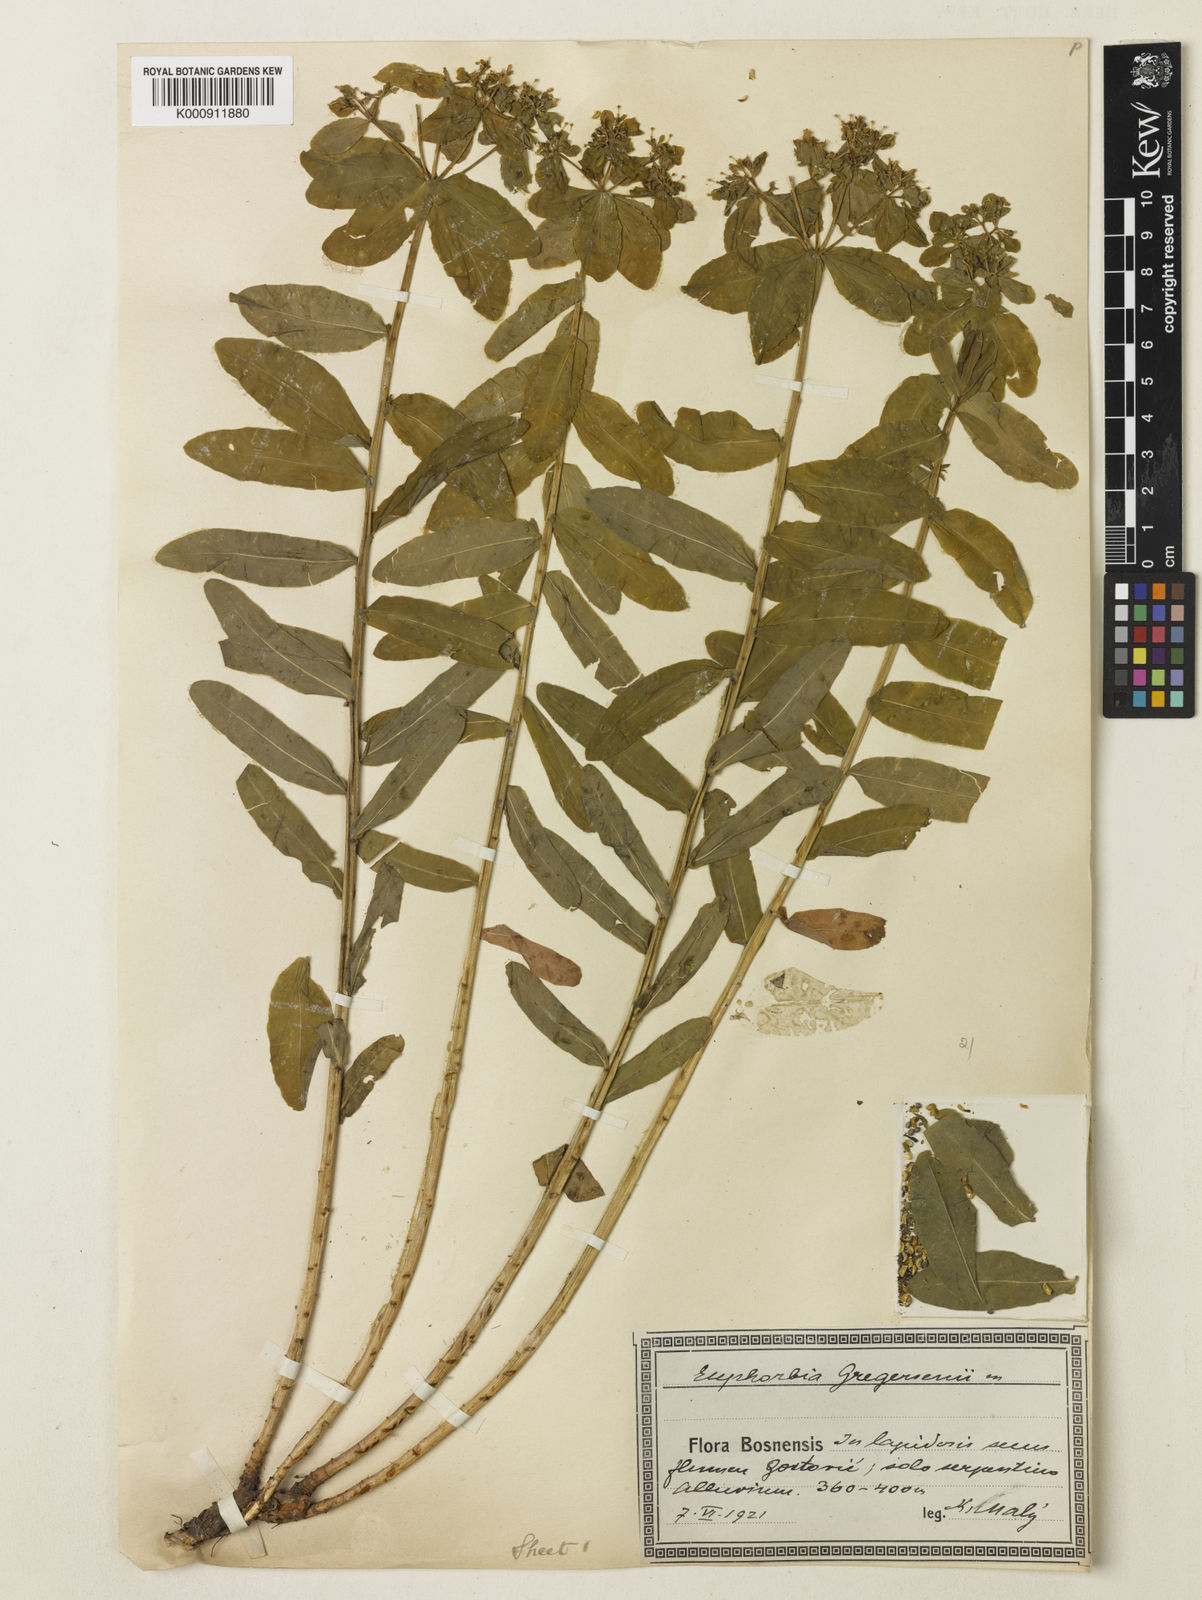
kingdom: Plantae
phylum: Tracheophyta
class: Magnoliopsida
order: Malpighiales
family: Euphorbiaceae
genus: Euphorbia
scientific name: Euphorbia
